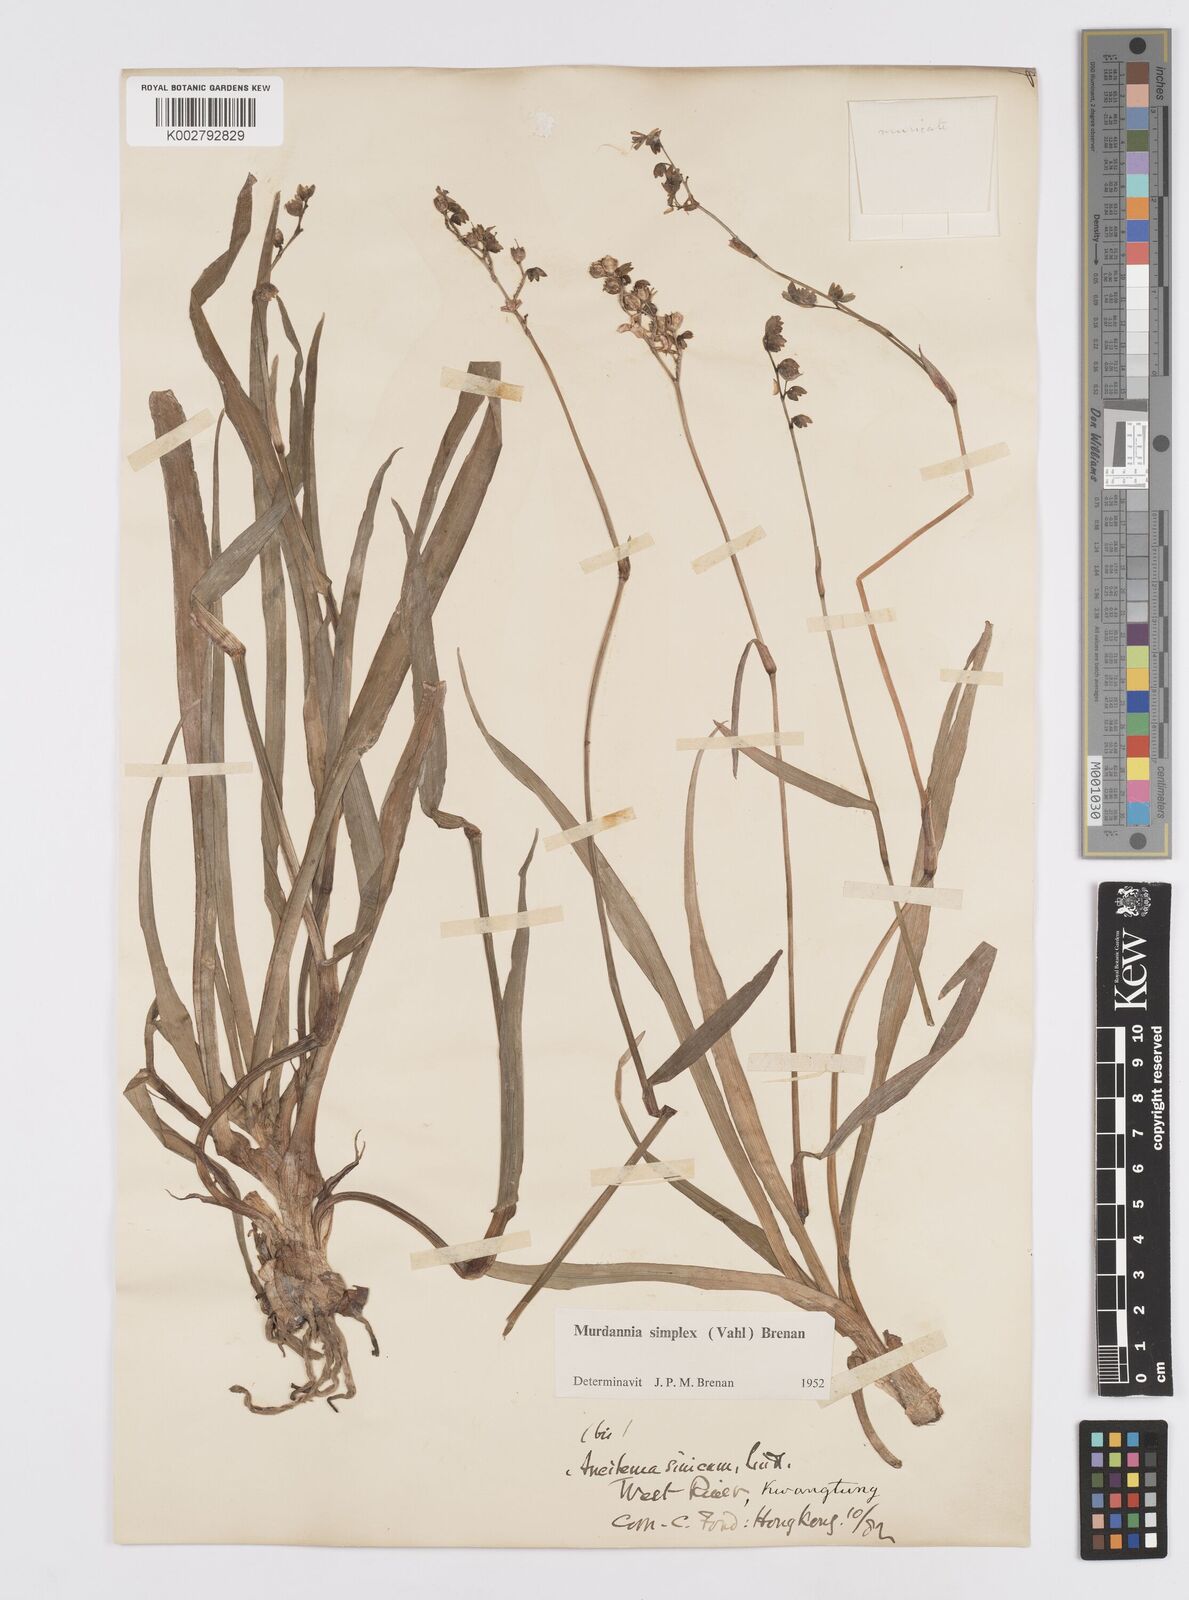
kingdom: Plantae
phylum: Tracheophyta
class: Liliopsida
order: Commelinales
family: Commelinaceae
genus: Murdannia
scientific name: Murdannia
